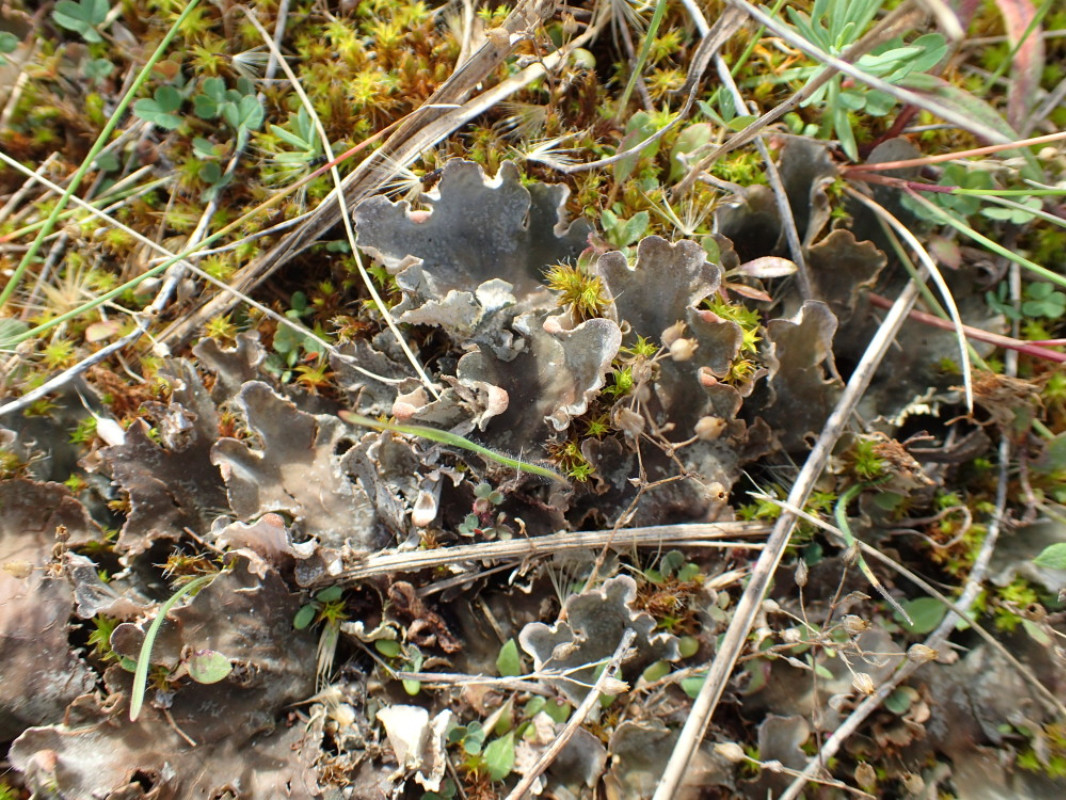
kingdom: Fungi
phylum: Ascomycota
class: Lecanoromycetes
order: Peltigerales
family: Peltigeraceae
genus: Peltigera
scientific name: Peltigera canina
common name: hunde-skjoldlav
